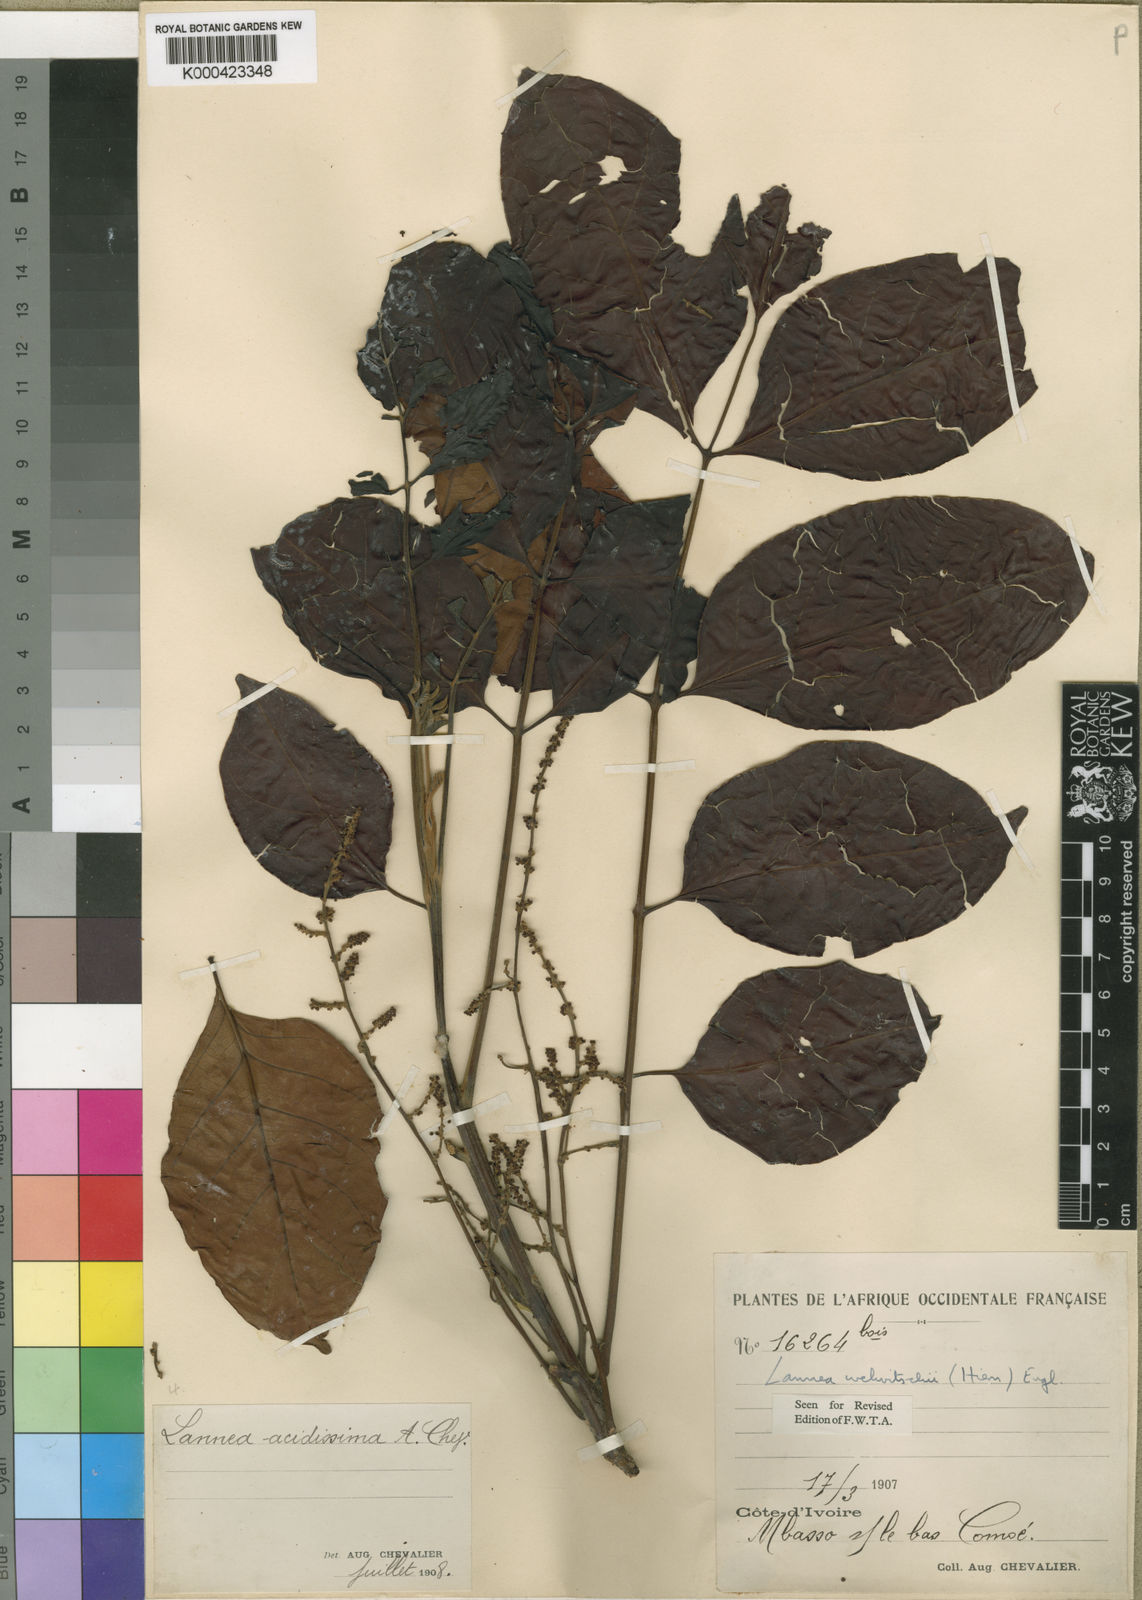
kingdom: Plantae
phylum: Tracheophyta
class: Magnoliopsida
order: Sapindales
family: Anacardiaceae
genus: Lannea
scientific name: Lannea welwitschii
